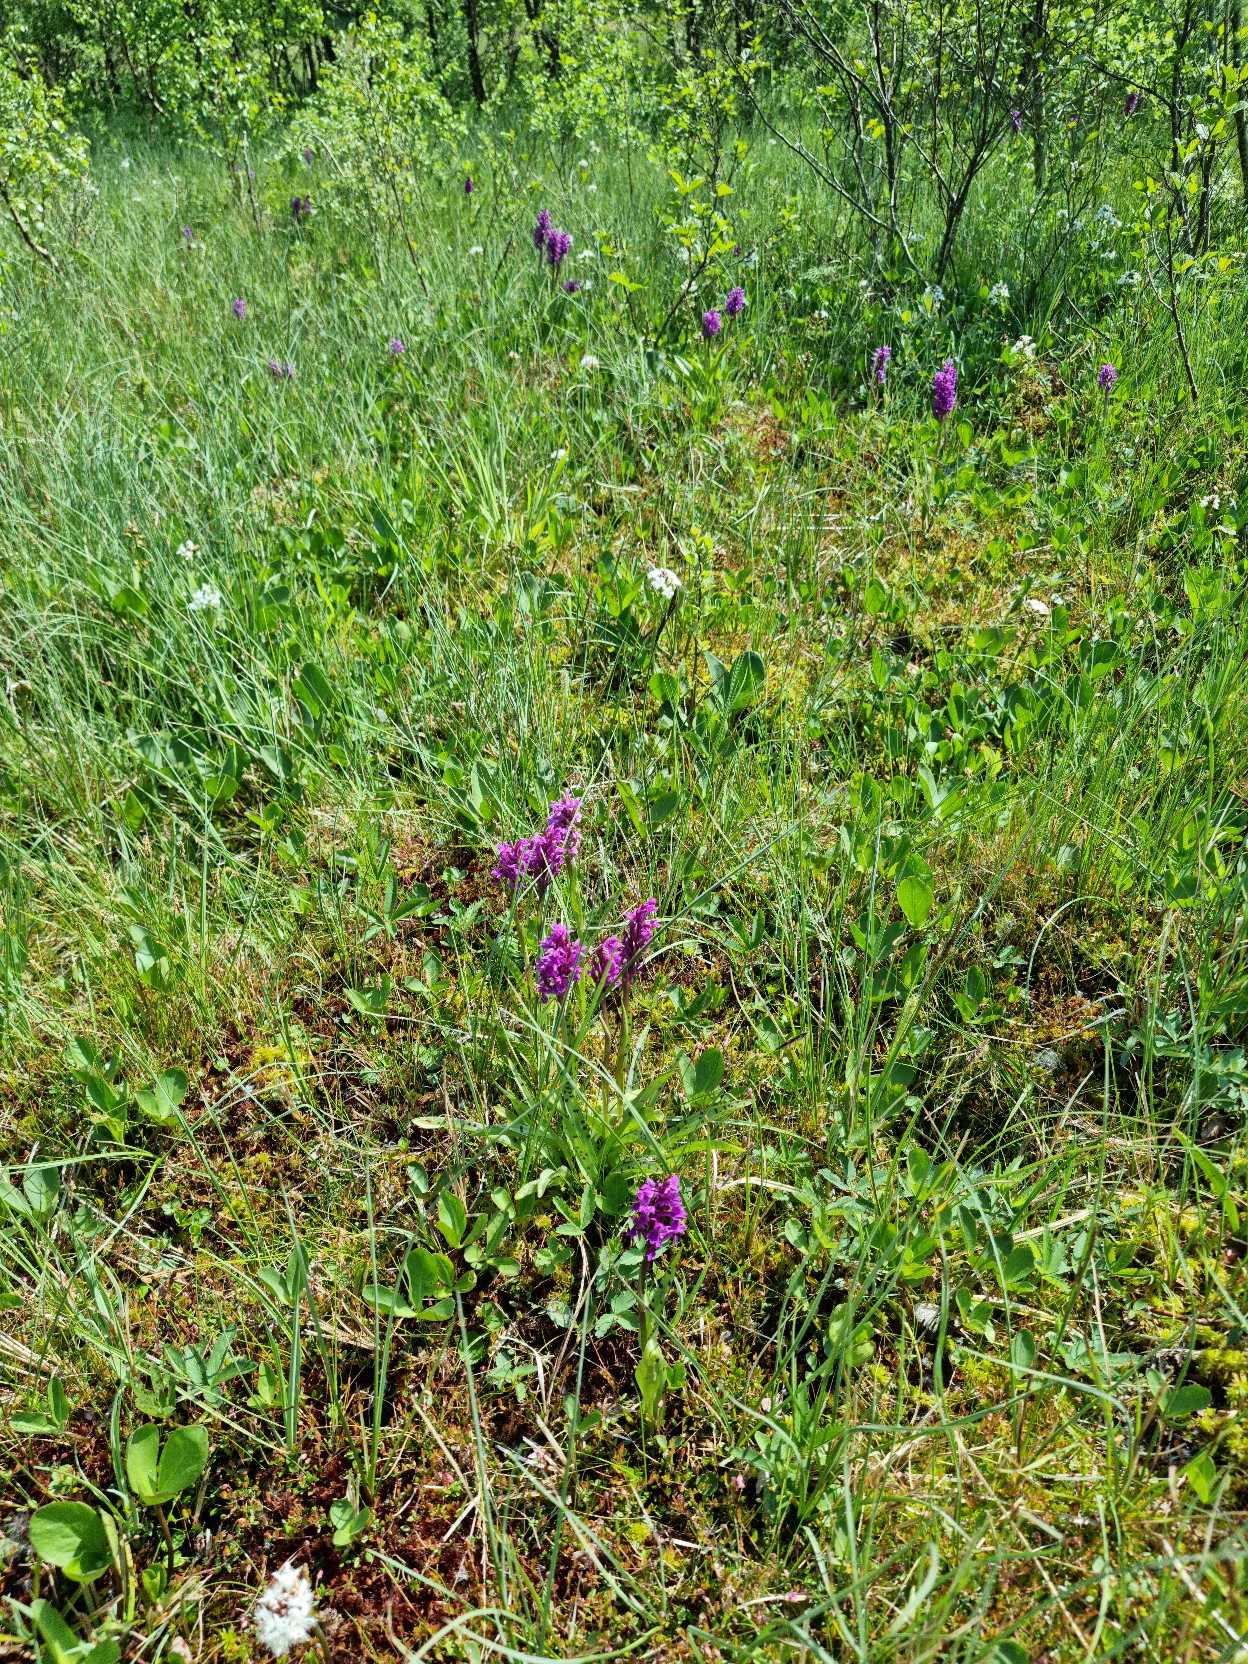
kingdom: Plantae
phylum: Tracheophyta
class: Liliopsida
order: Asparagales
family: Orchidaceae
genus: Dactylorhiza
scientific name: Dactylorhiza majalis
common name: Maj-gøgeurt
